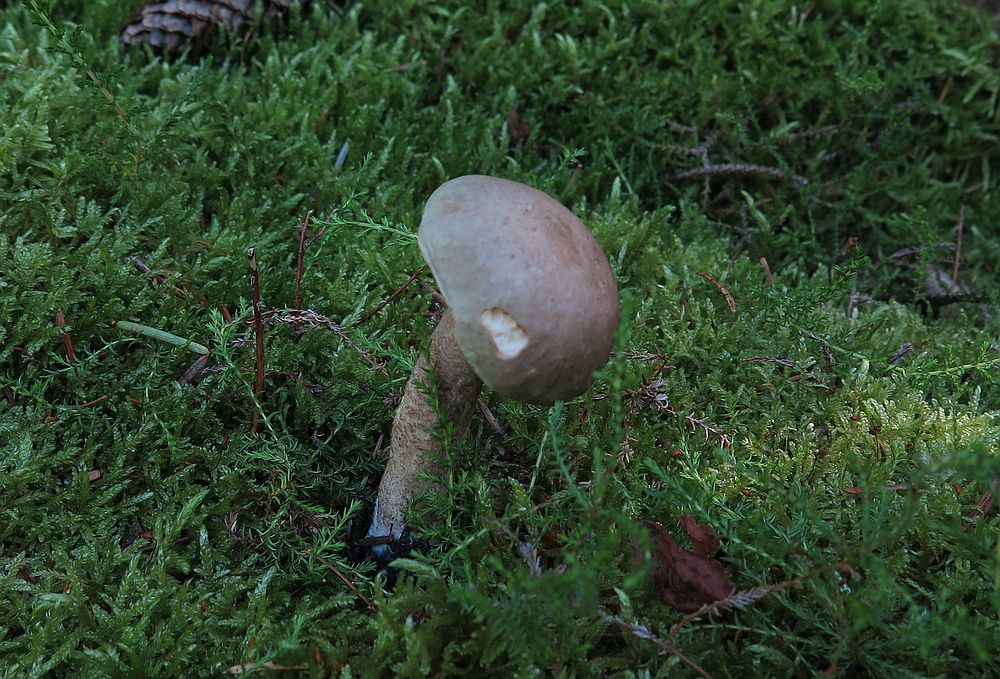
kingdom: Fungi
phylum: Basidiomycota
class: Agaricomycetes
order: Boletales
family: Boletaceae
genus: Leccinum
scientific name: Leccinum cyaneobasileucum
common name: almindelig skælrørhat
